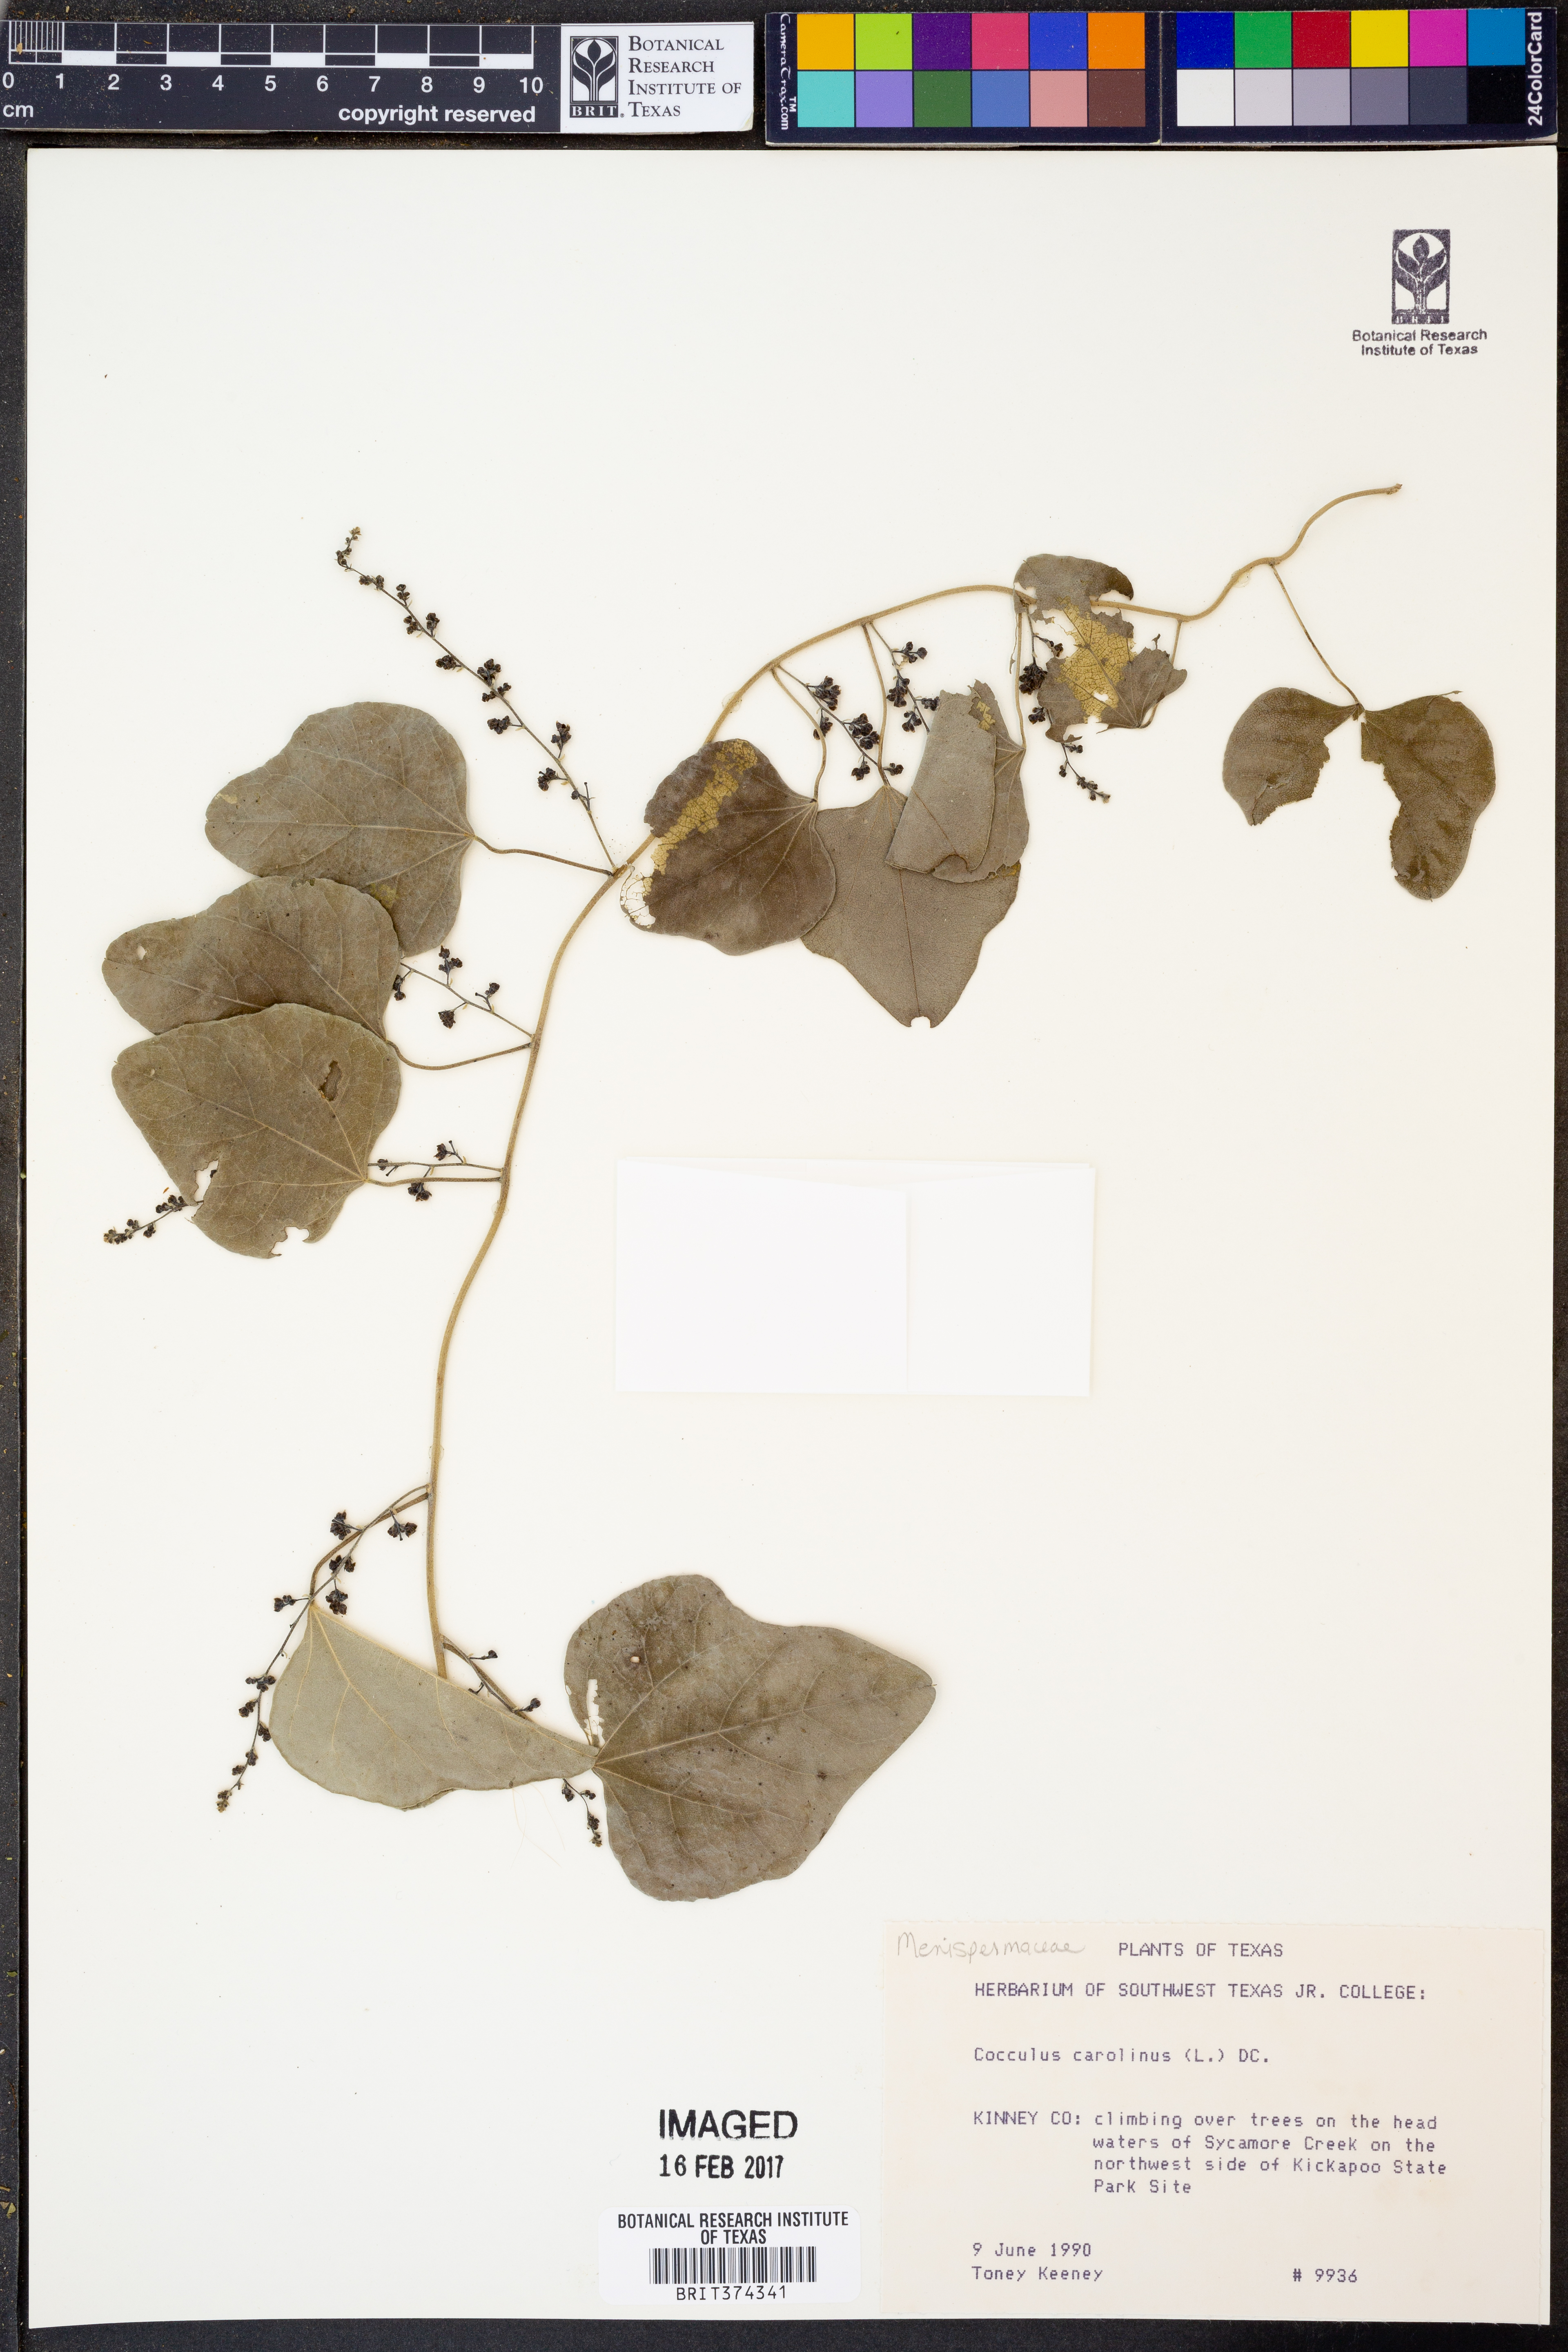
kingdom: Plantae
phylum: Tracheophyta
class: Magnoliopsida
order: Ranunculales
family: Menispermaceae
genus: Cocculus
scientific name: Cocculus carolinus
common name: Carolina moonseed
